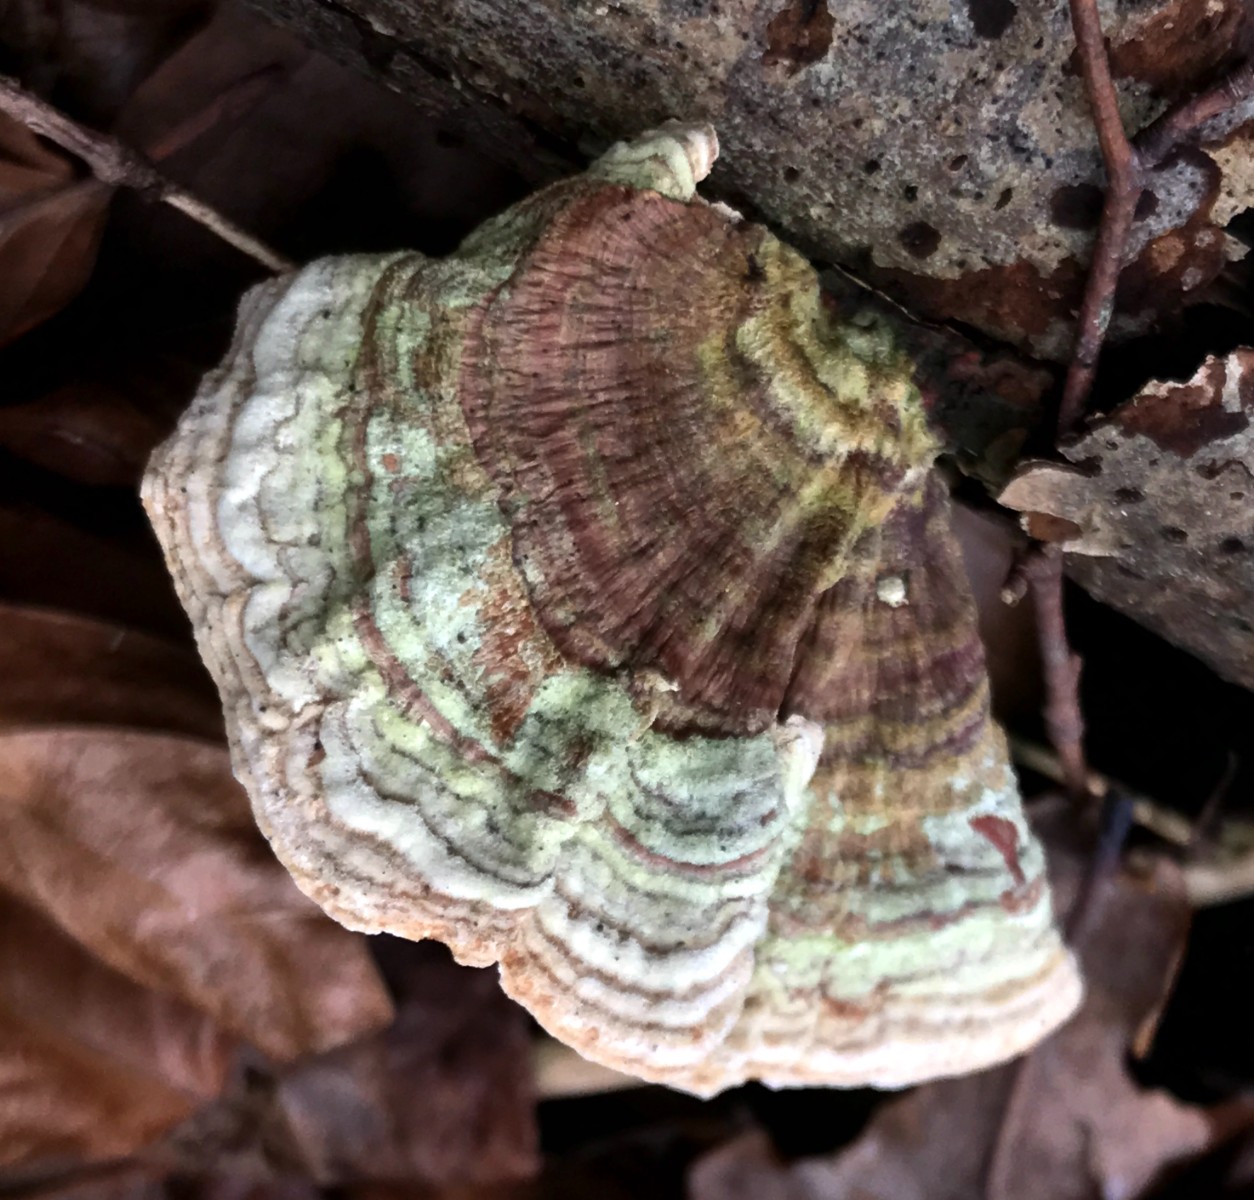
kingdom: Fungi
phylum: Basidiomycota
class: Agaricomycetes
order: Russulales
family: Stereaceae
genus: Stereum
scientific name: Stereum subtomentosum
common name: smuk lædersvamp
